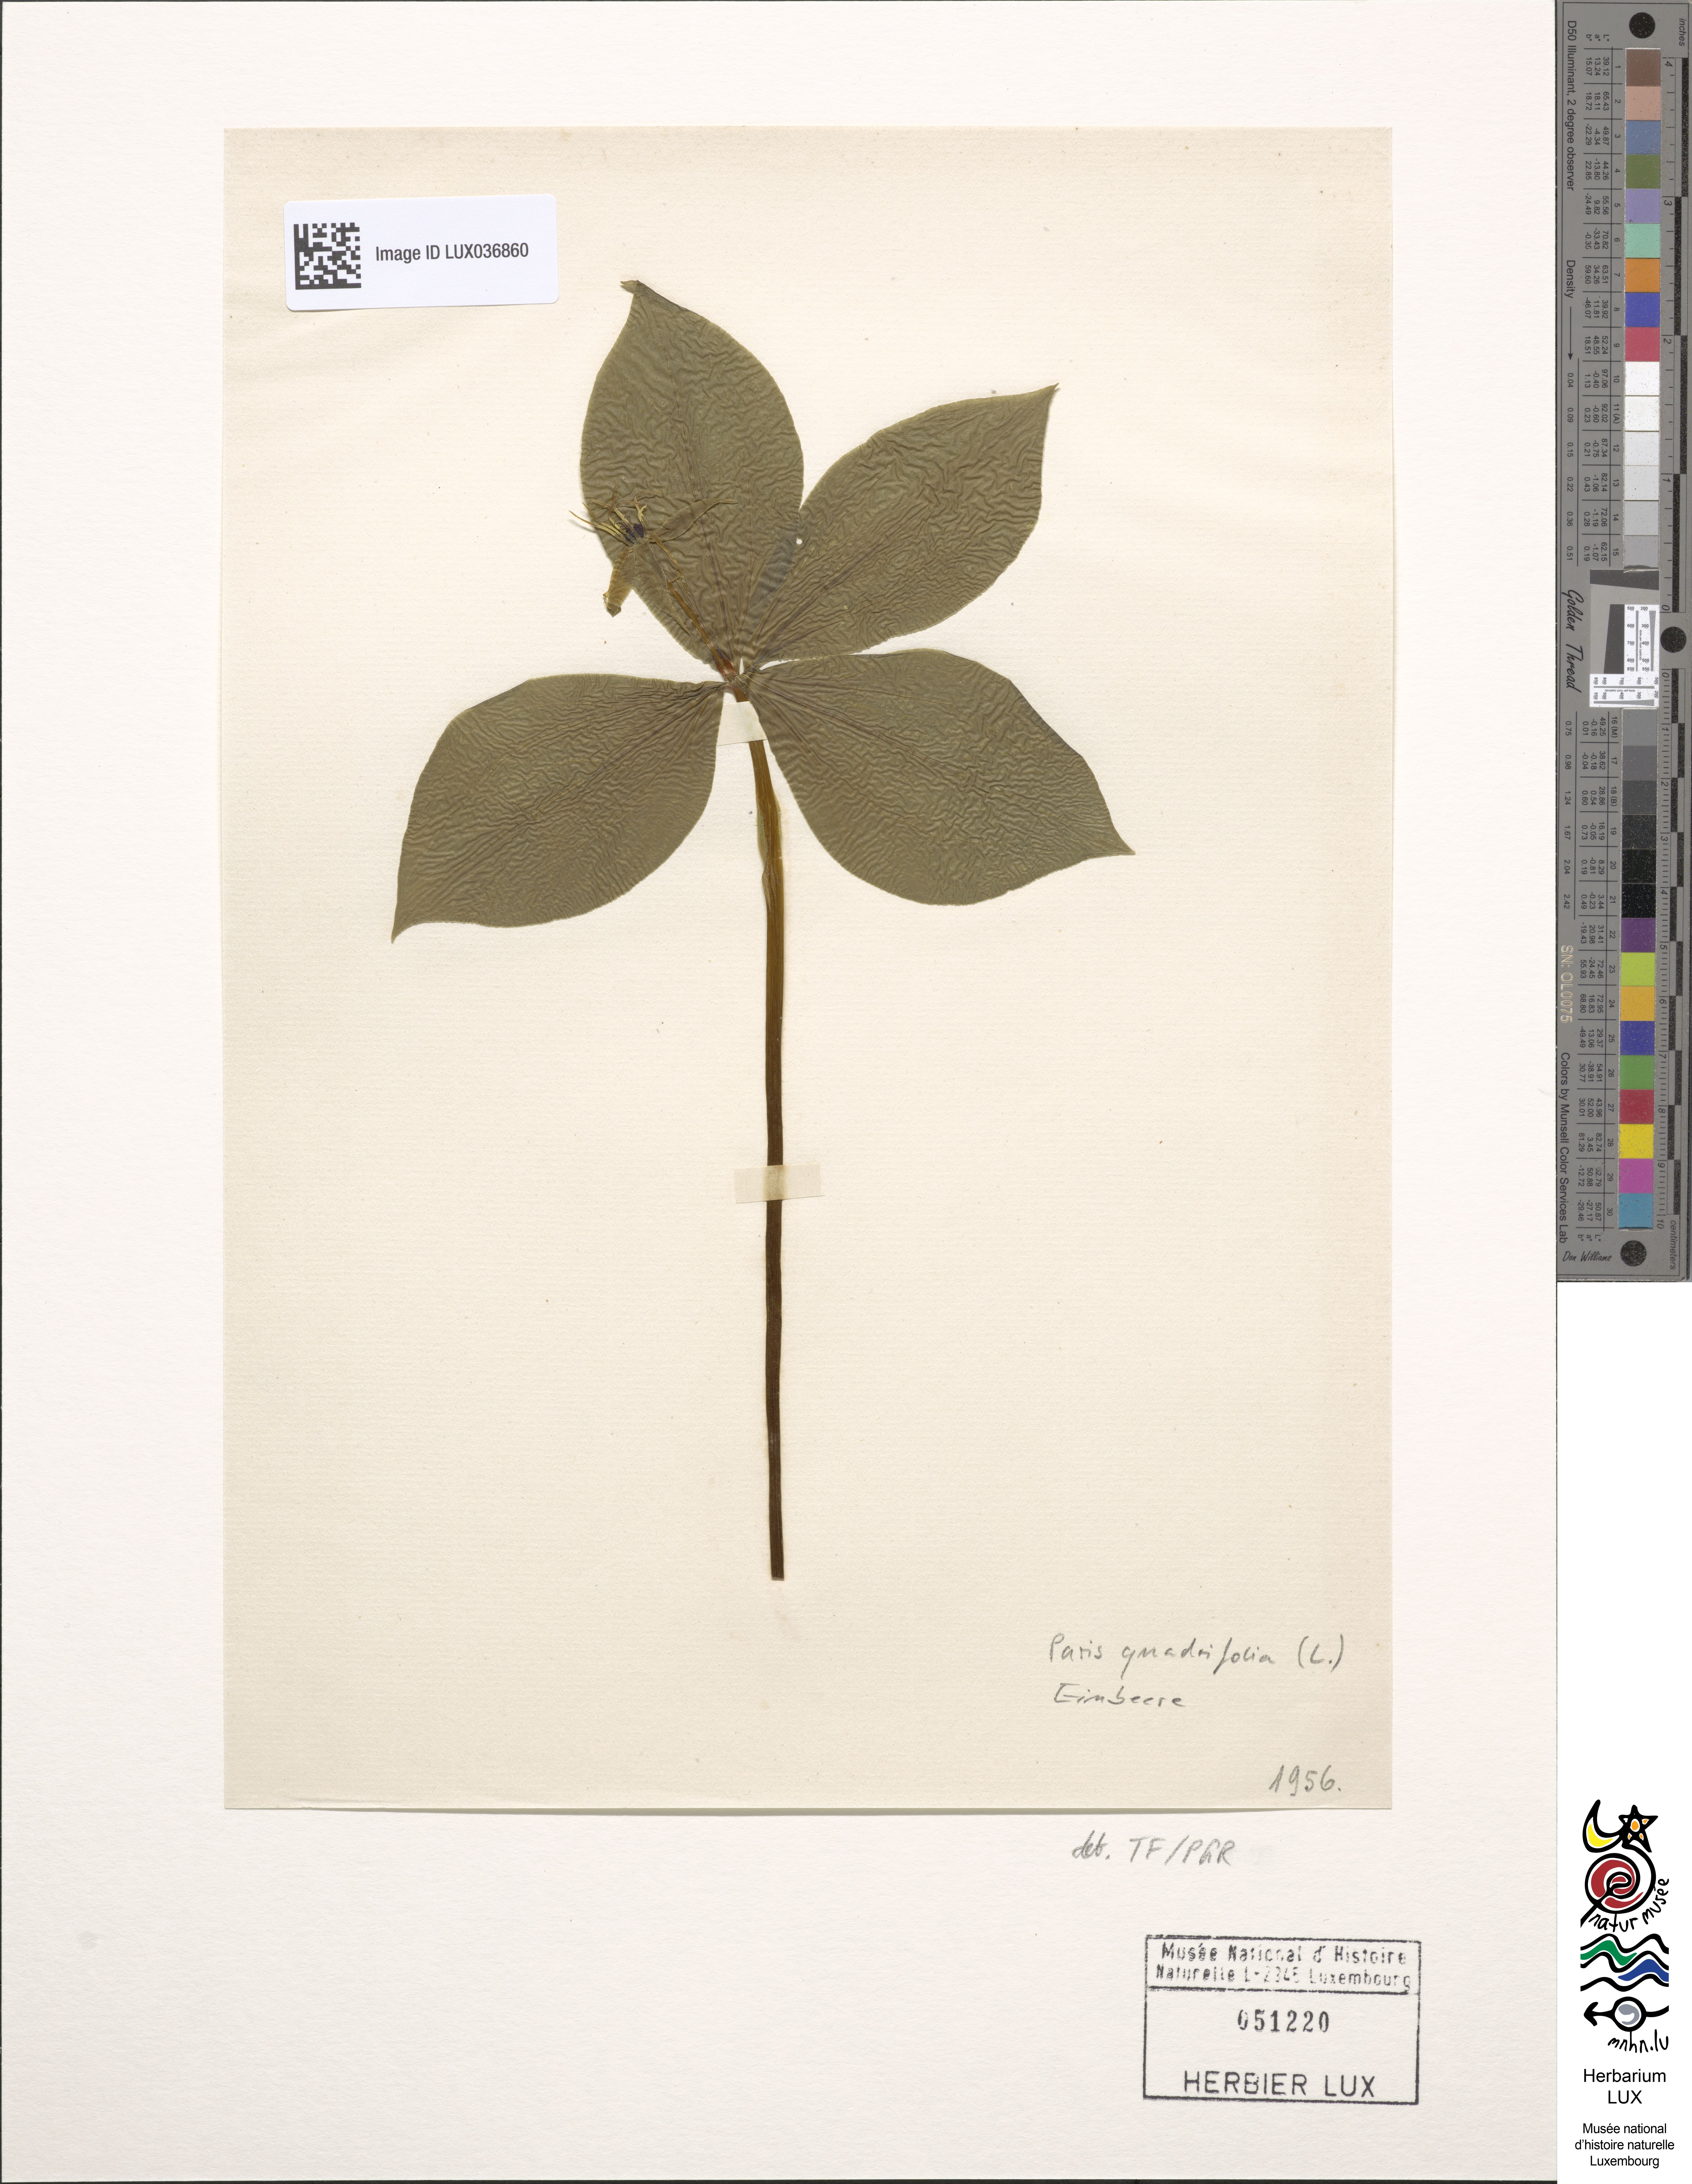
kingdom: Plantae
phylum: Tracheophyta
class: Liliopsida
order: Liliales
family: Melanthiaceae
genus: Paris
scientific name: Paris quadrifolia
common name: Herb-paris
